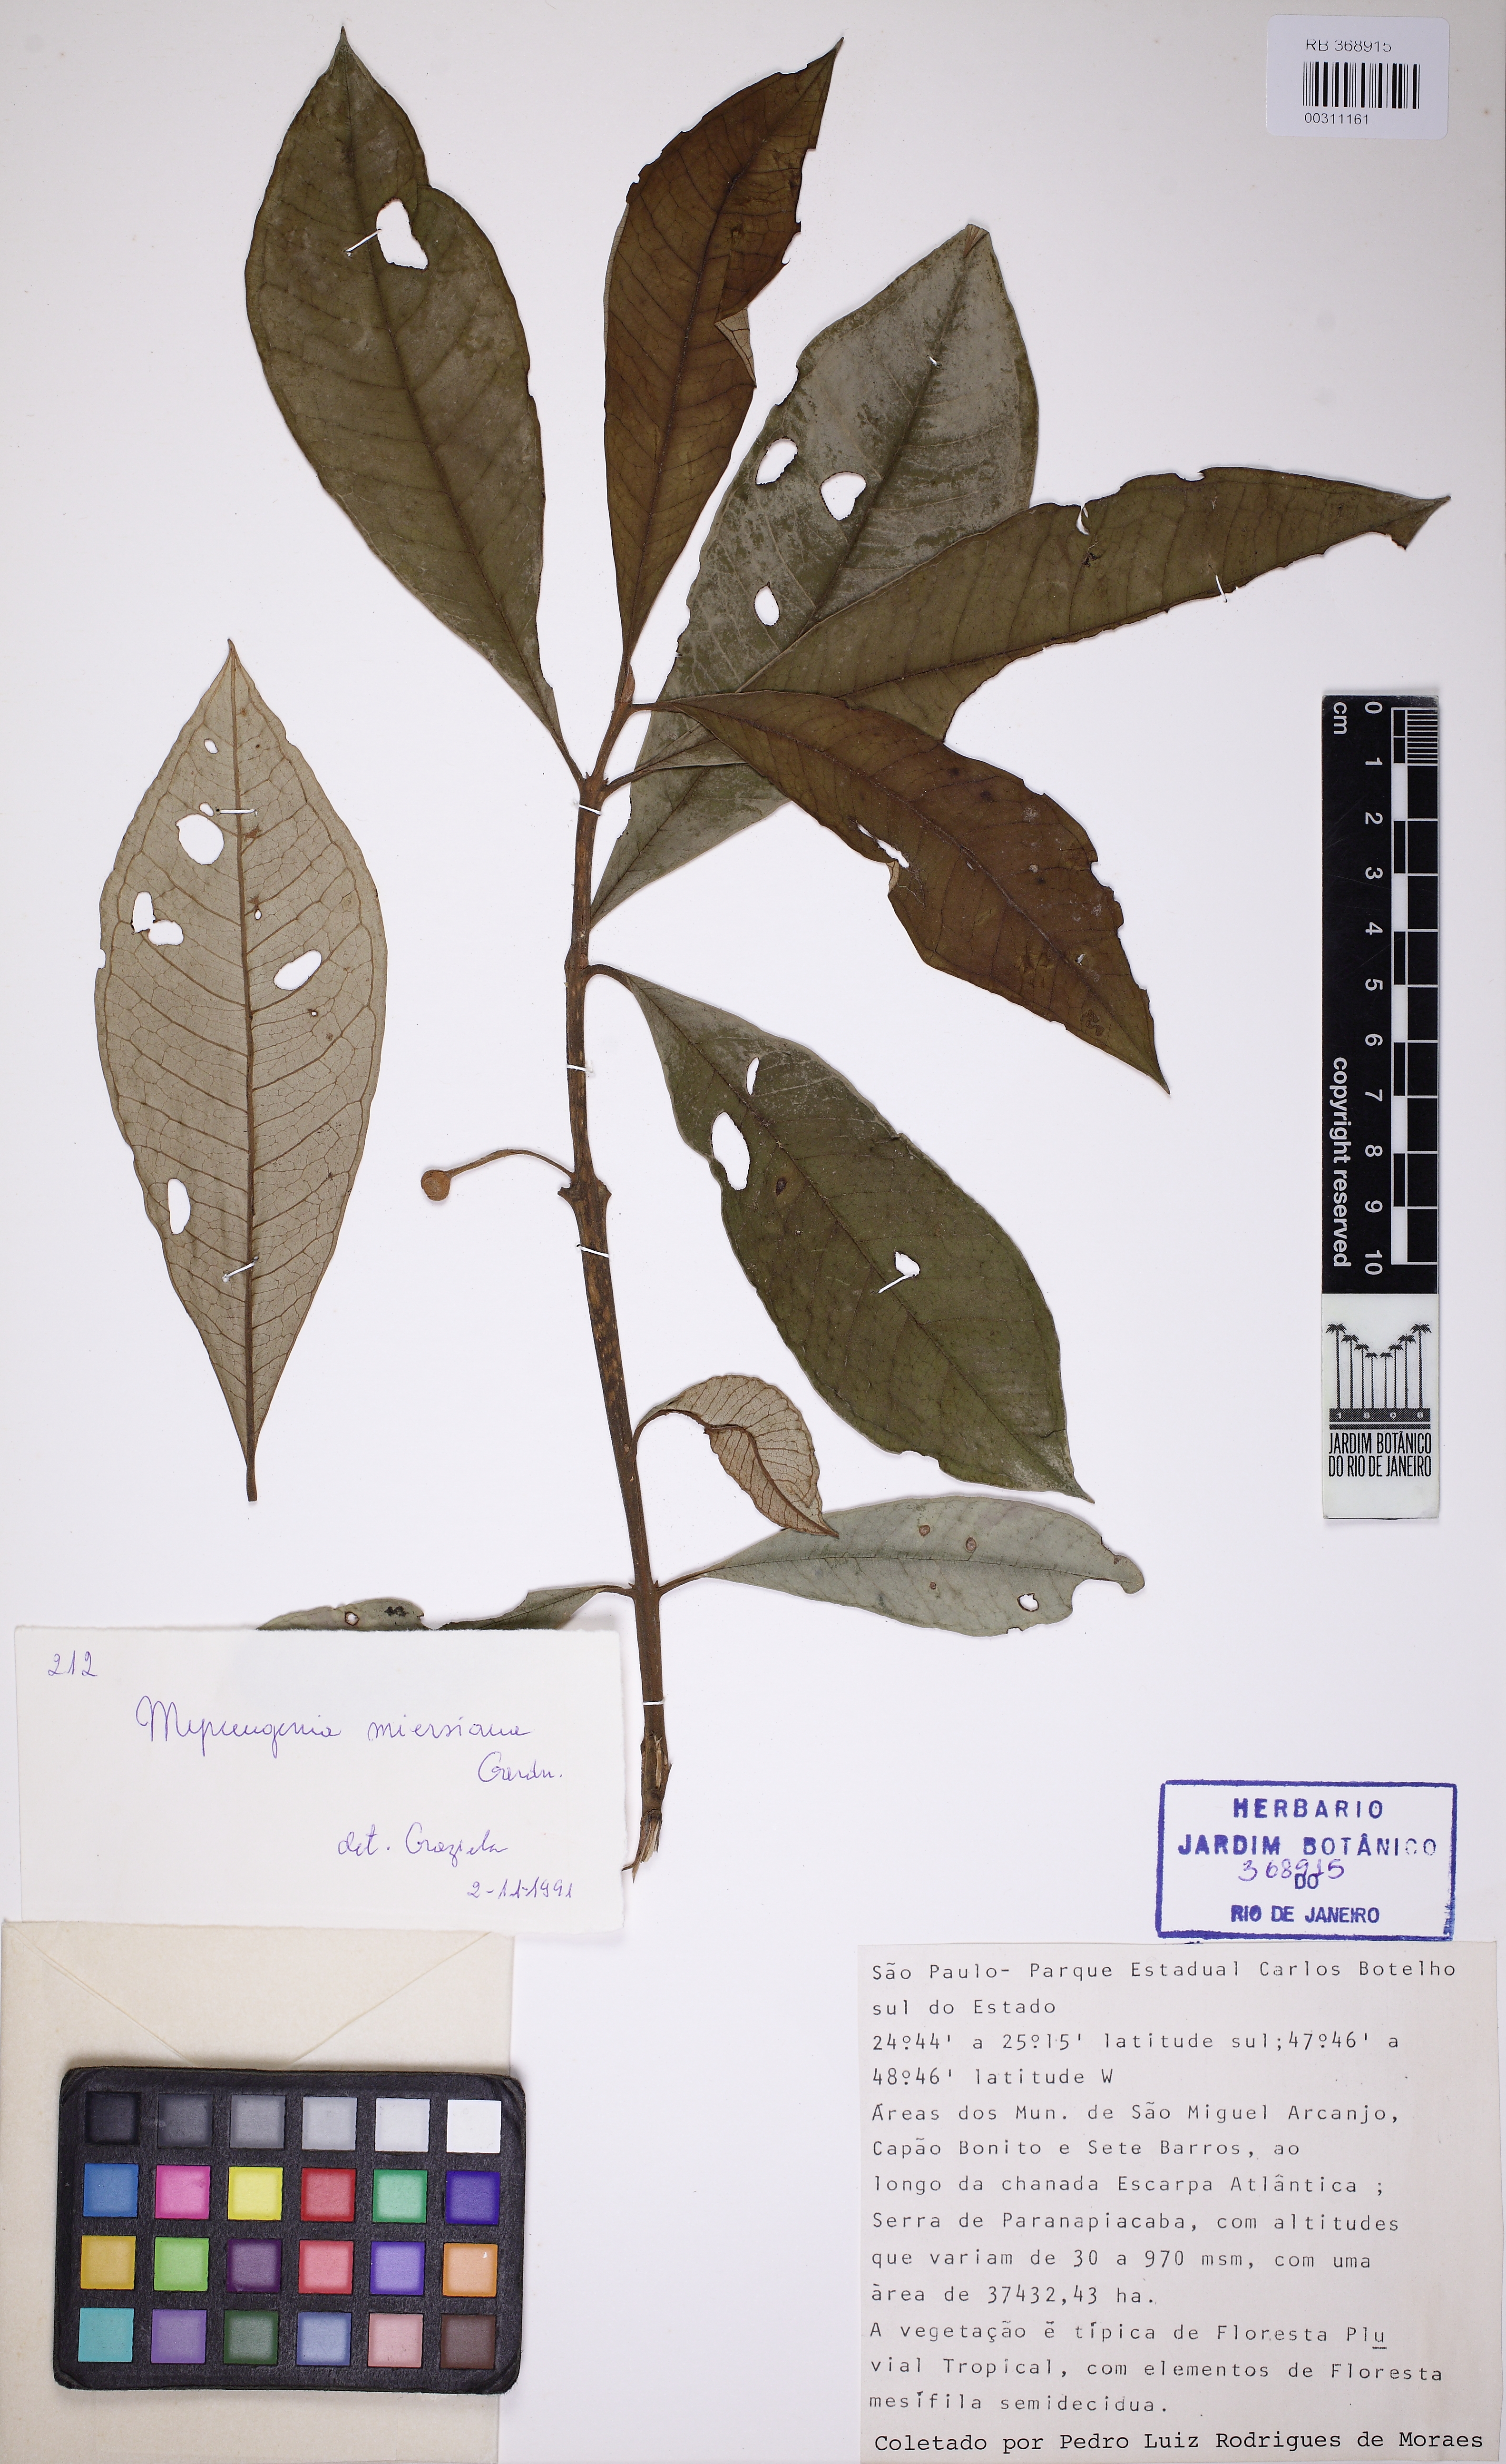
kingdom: Plantae
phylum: Tracheophyta
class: Magnoliopsida
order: Myrtales
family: Myrtaceae
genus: Myrceugenia
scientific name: Myrceugenia myrcioides
